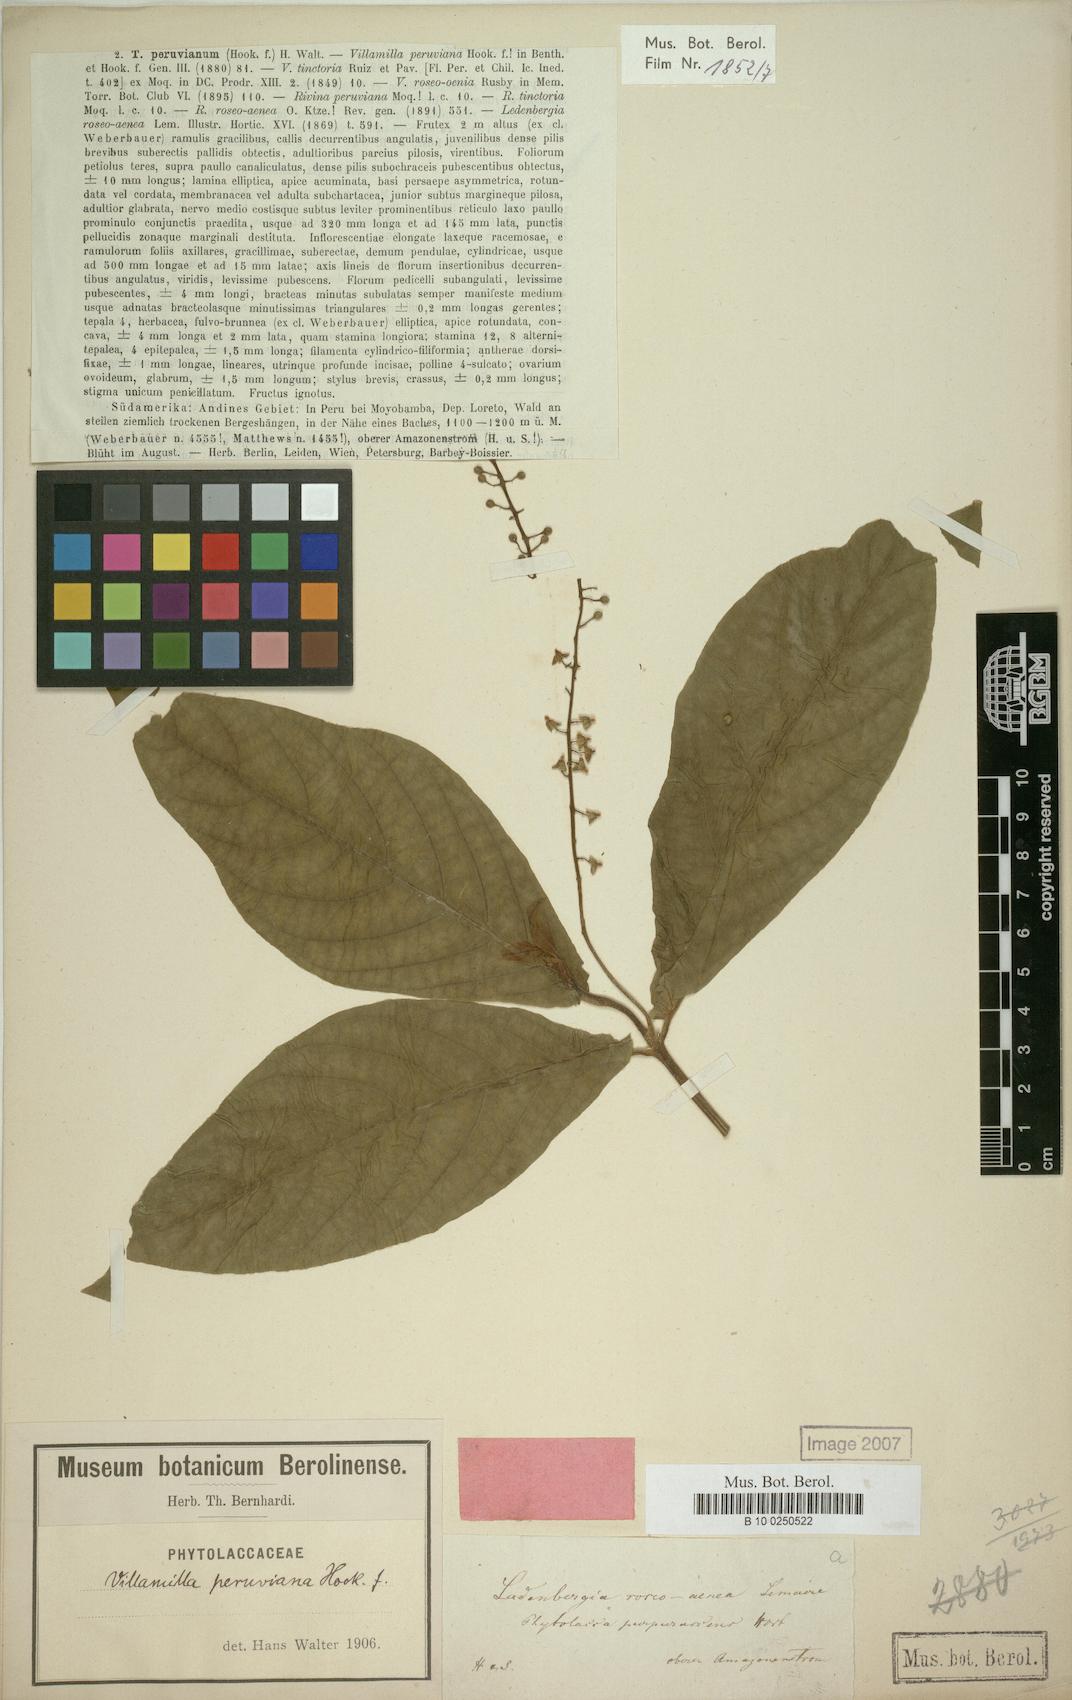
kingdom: Plantae
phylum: Tracheophyta
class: Magnoliopsida
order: Caryophyllales
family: Phytolaccaceae
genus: Trichostigma
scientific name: Trichostigma peruvianum
